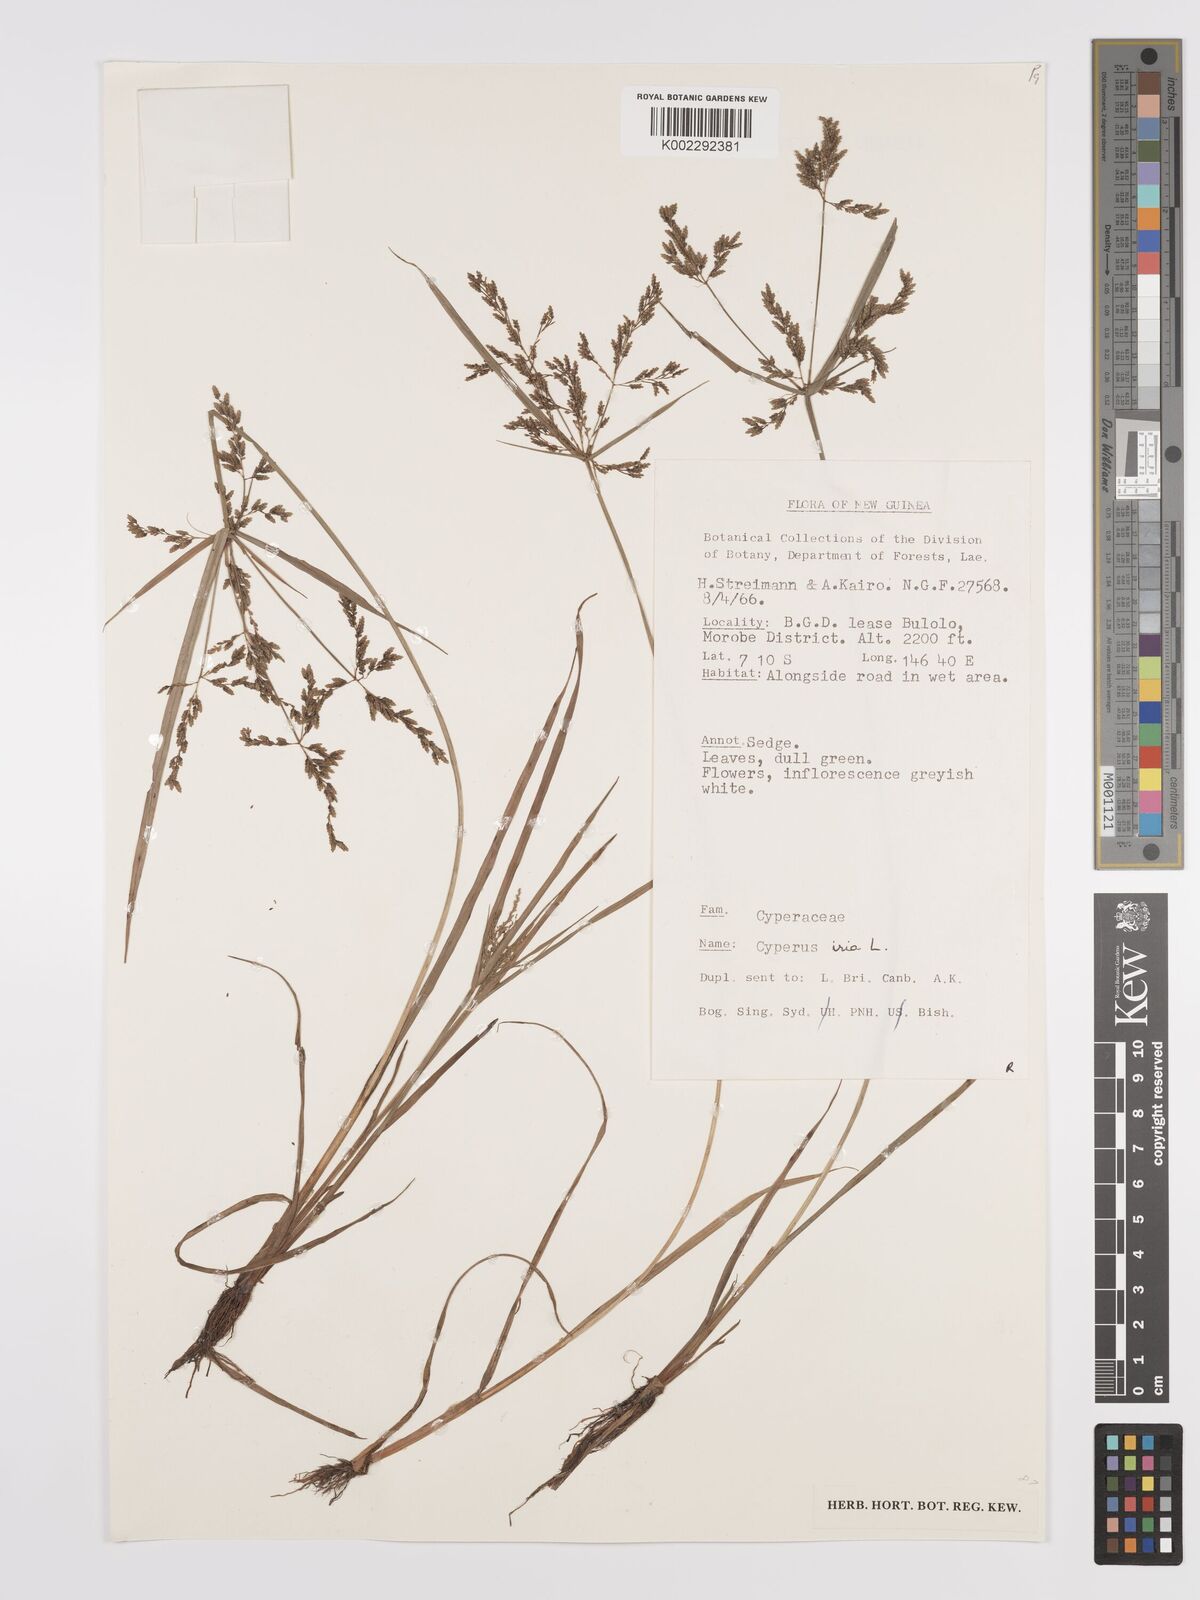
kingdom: Plantae
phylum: Tracheophyta
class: Liliopsida
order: Poales
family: Cyperaceae
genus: Cyperus
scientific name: Cyperus iria
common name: Ricefield flatsedge
